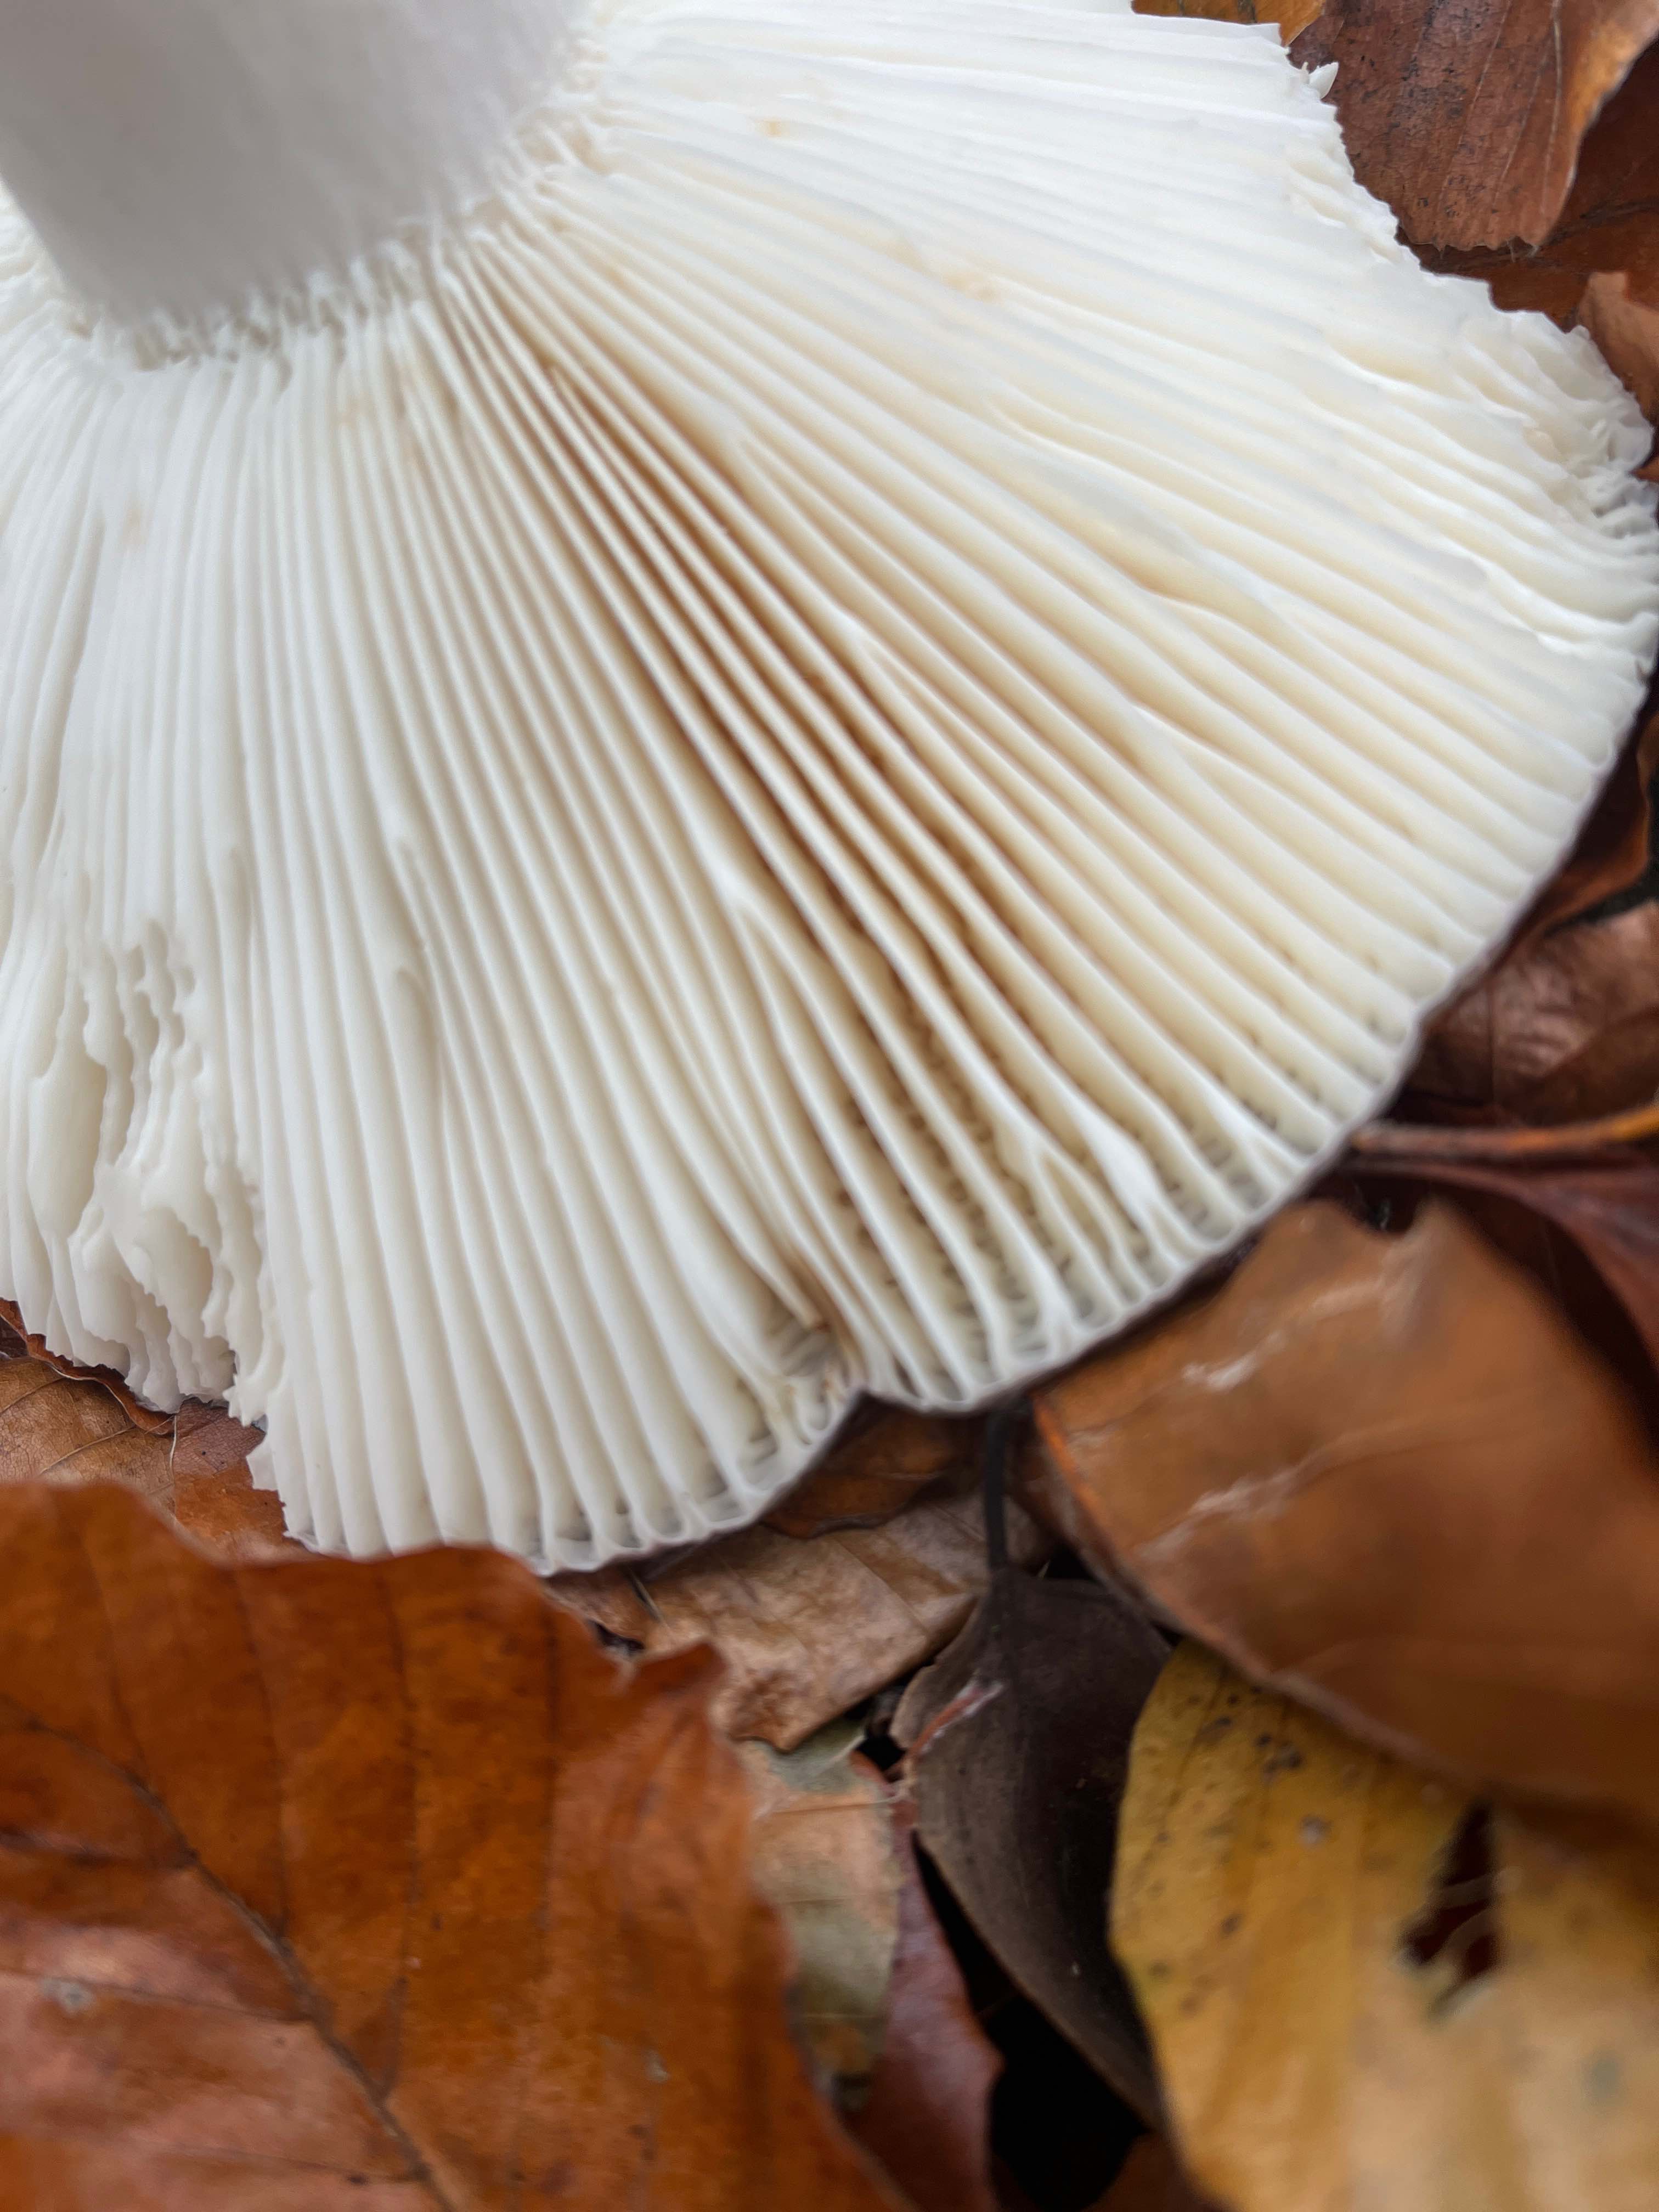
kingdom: Fungi
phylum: Basidiomycota
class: Agaricomycetes
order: Russulales
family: Russulaceae
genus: Russula
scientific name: Russula
